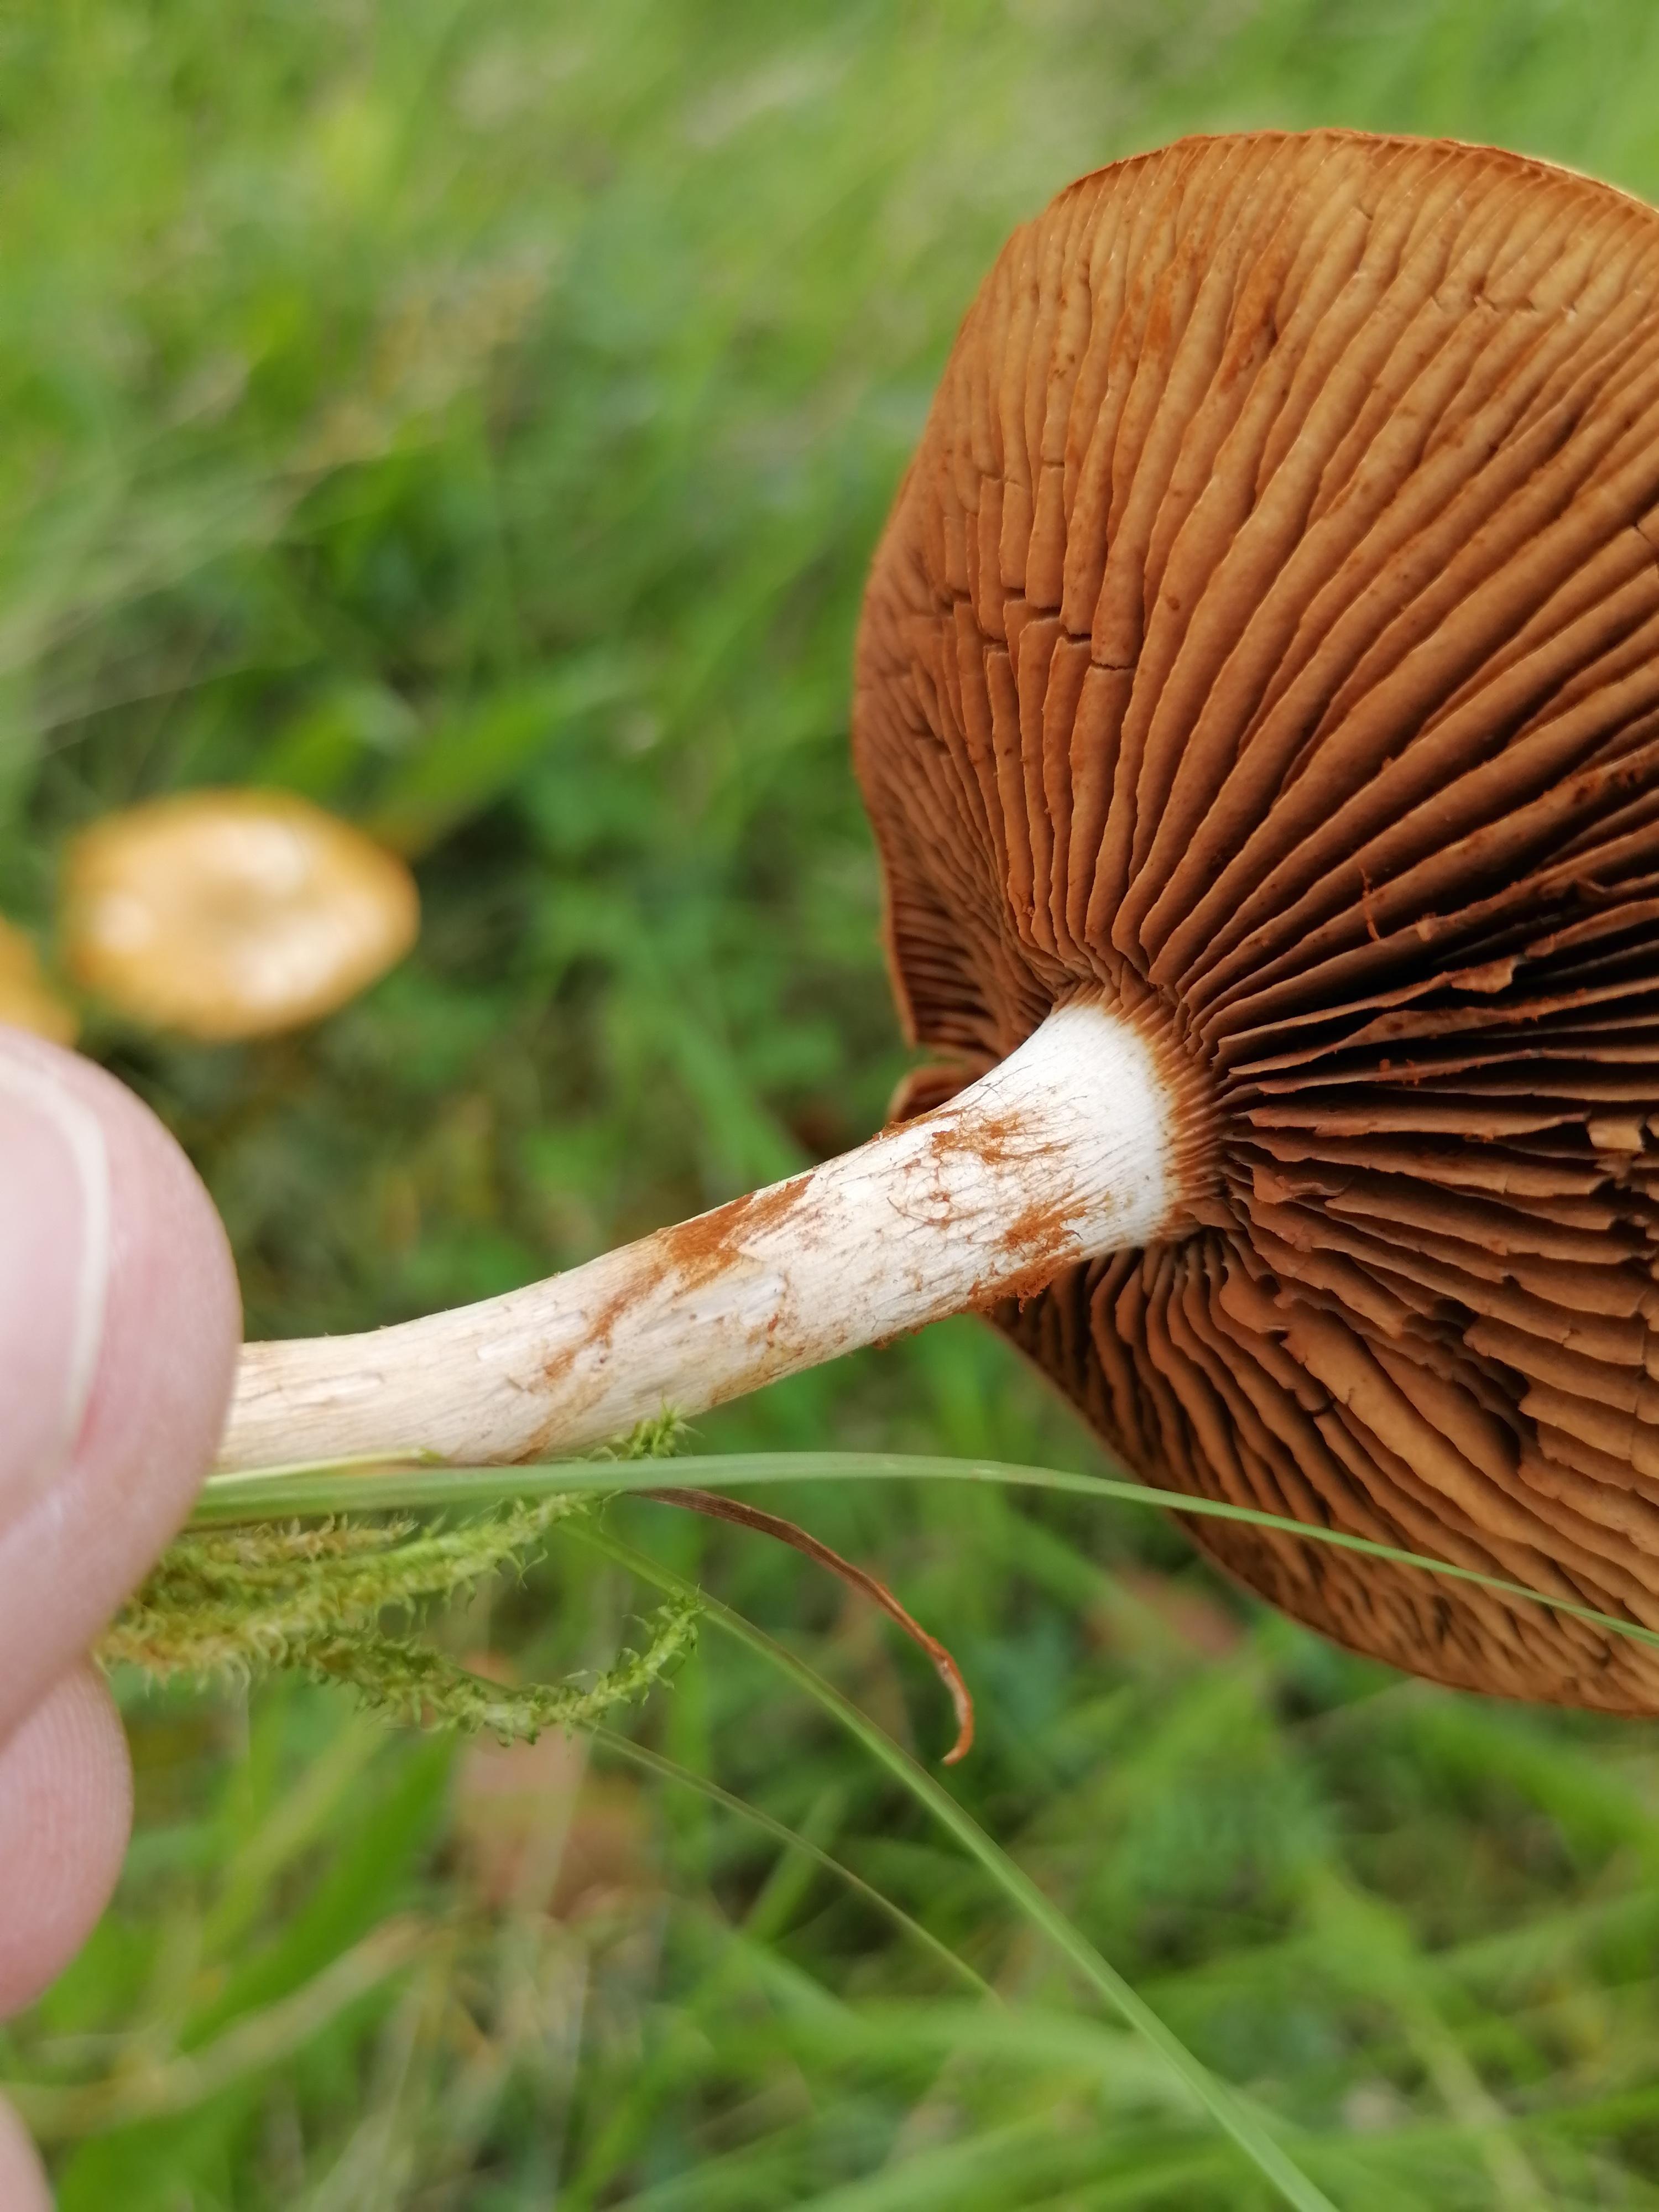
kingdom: Fungi
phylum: Basidiomycota
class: Agaricomycetes
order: Agaricales
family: Cortinariaceae
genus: Cortinarius
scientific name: Cortinarius
